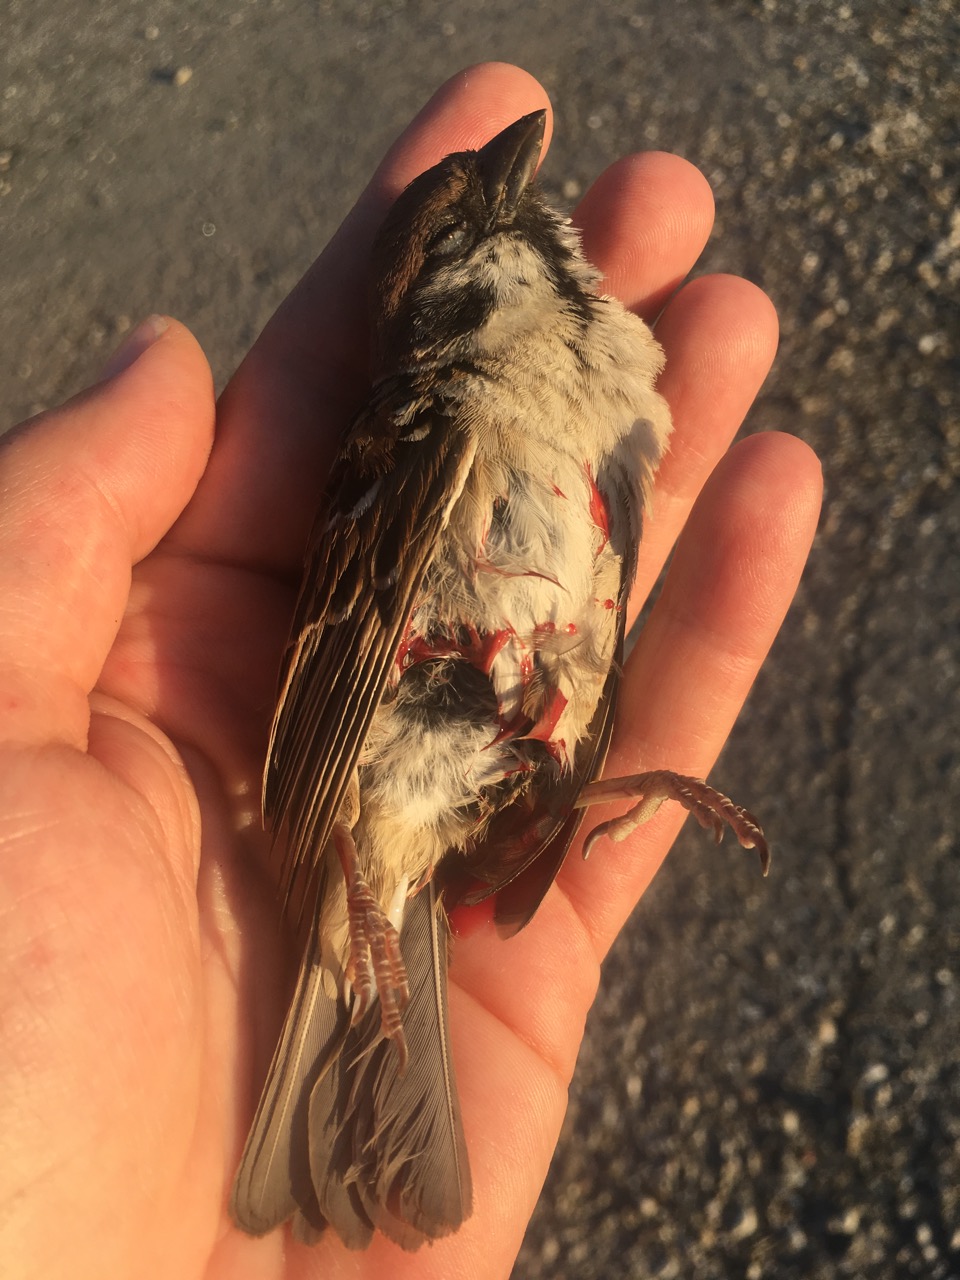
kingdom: Animalia
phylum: Chordata
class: Aves
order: Passeriformes
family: Passeridae
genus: Passer
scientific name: Passer montanus
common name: Eurasian tree sparrow
